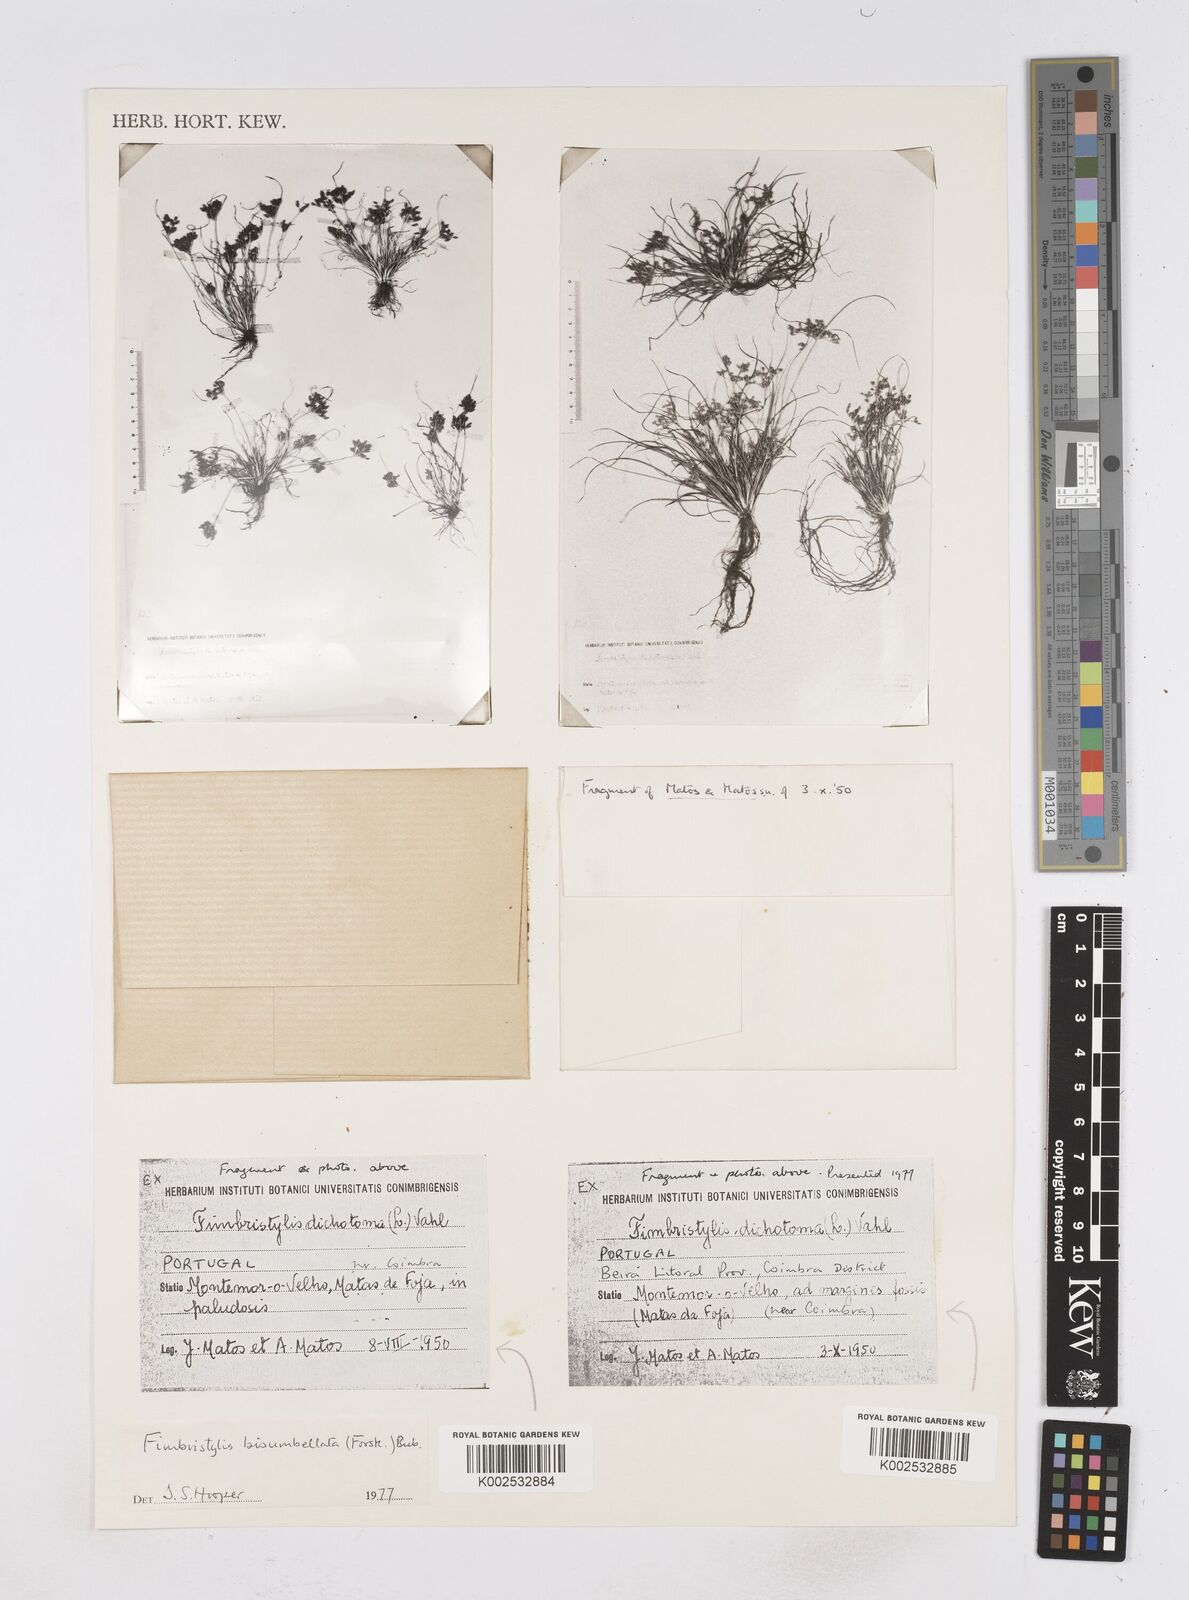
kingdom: Plantae
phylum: Tracheophyta
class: Liliopsida
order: Poales
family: Cyperaceae
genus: Fimbristylis
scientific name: Fimbristylis bisumbellata
